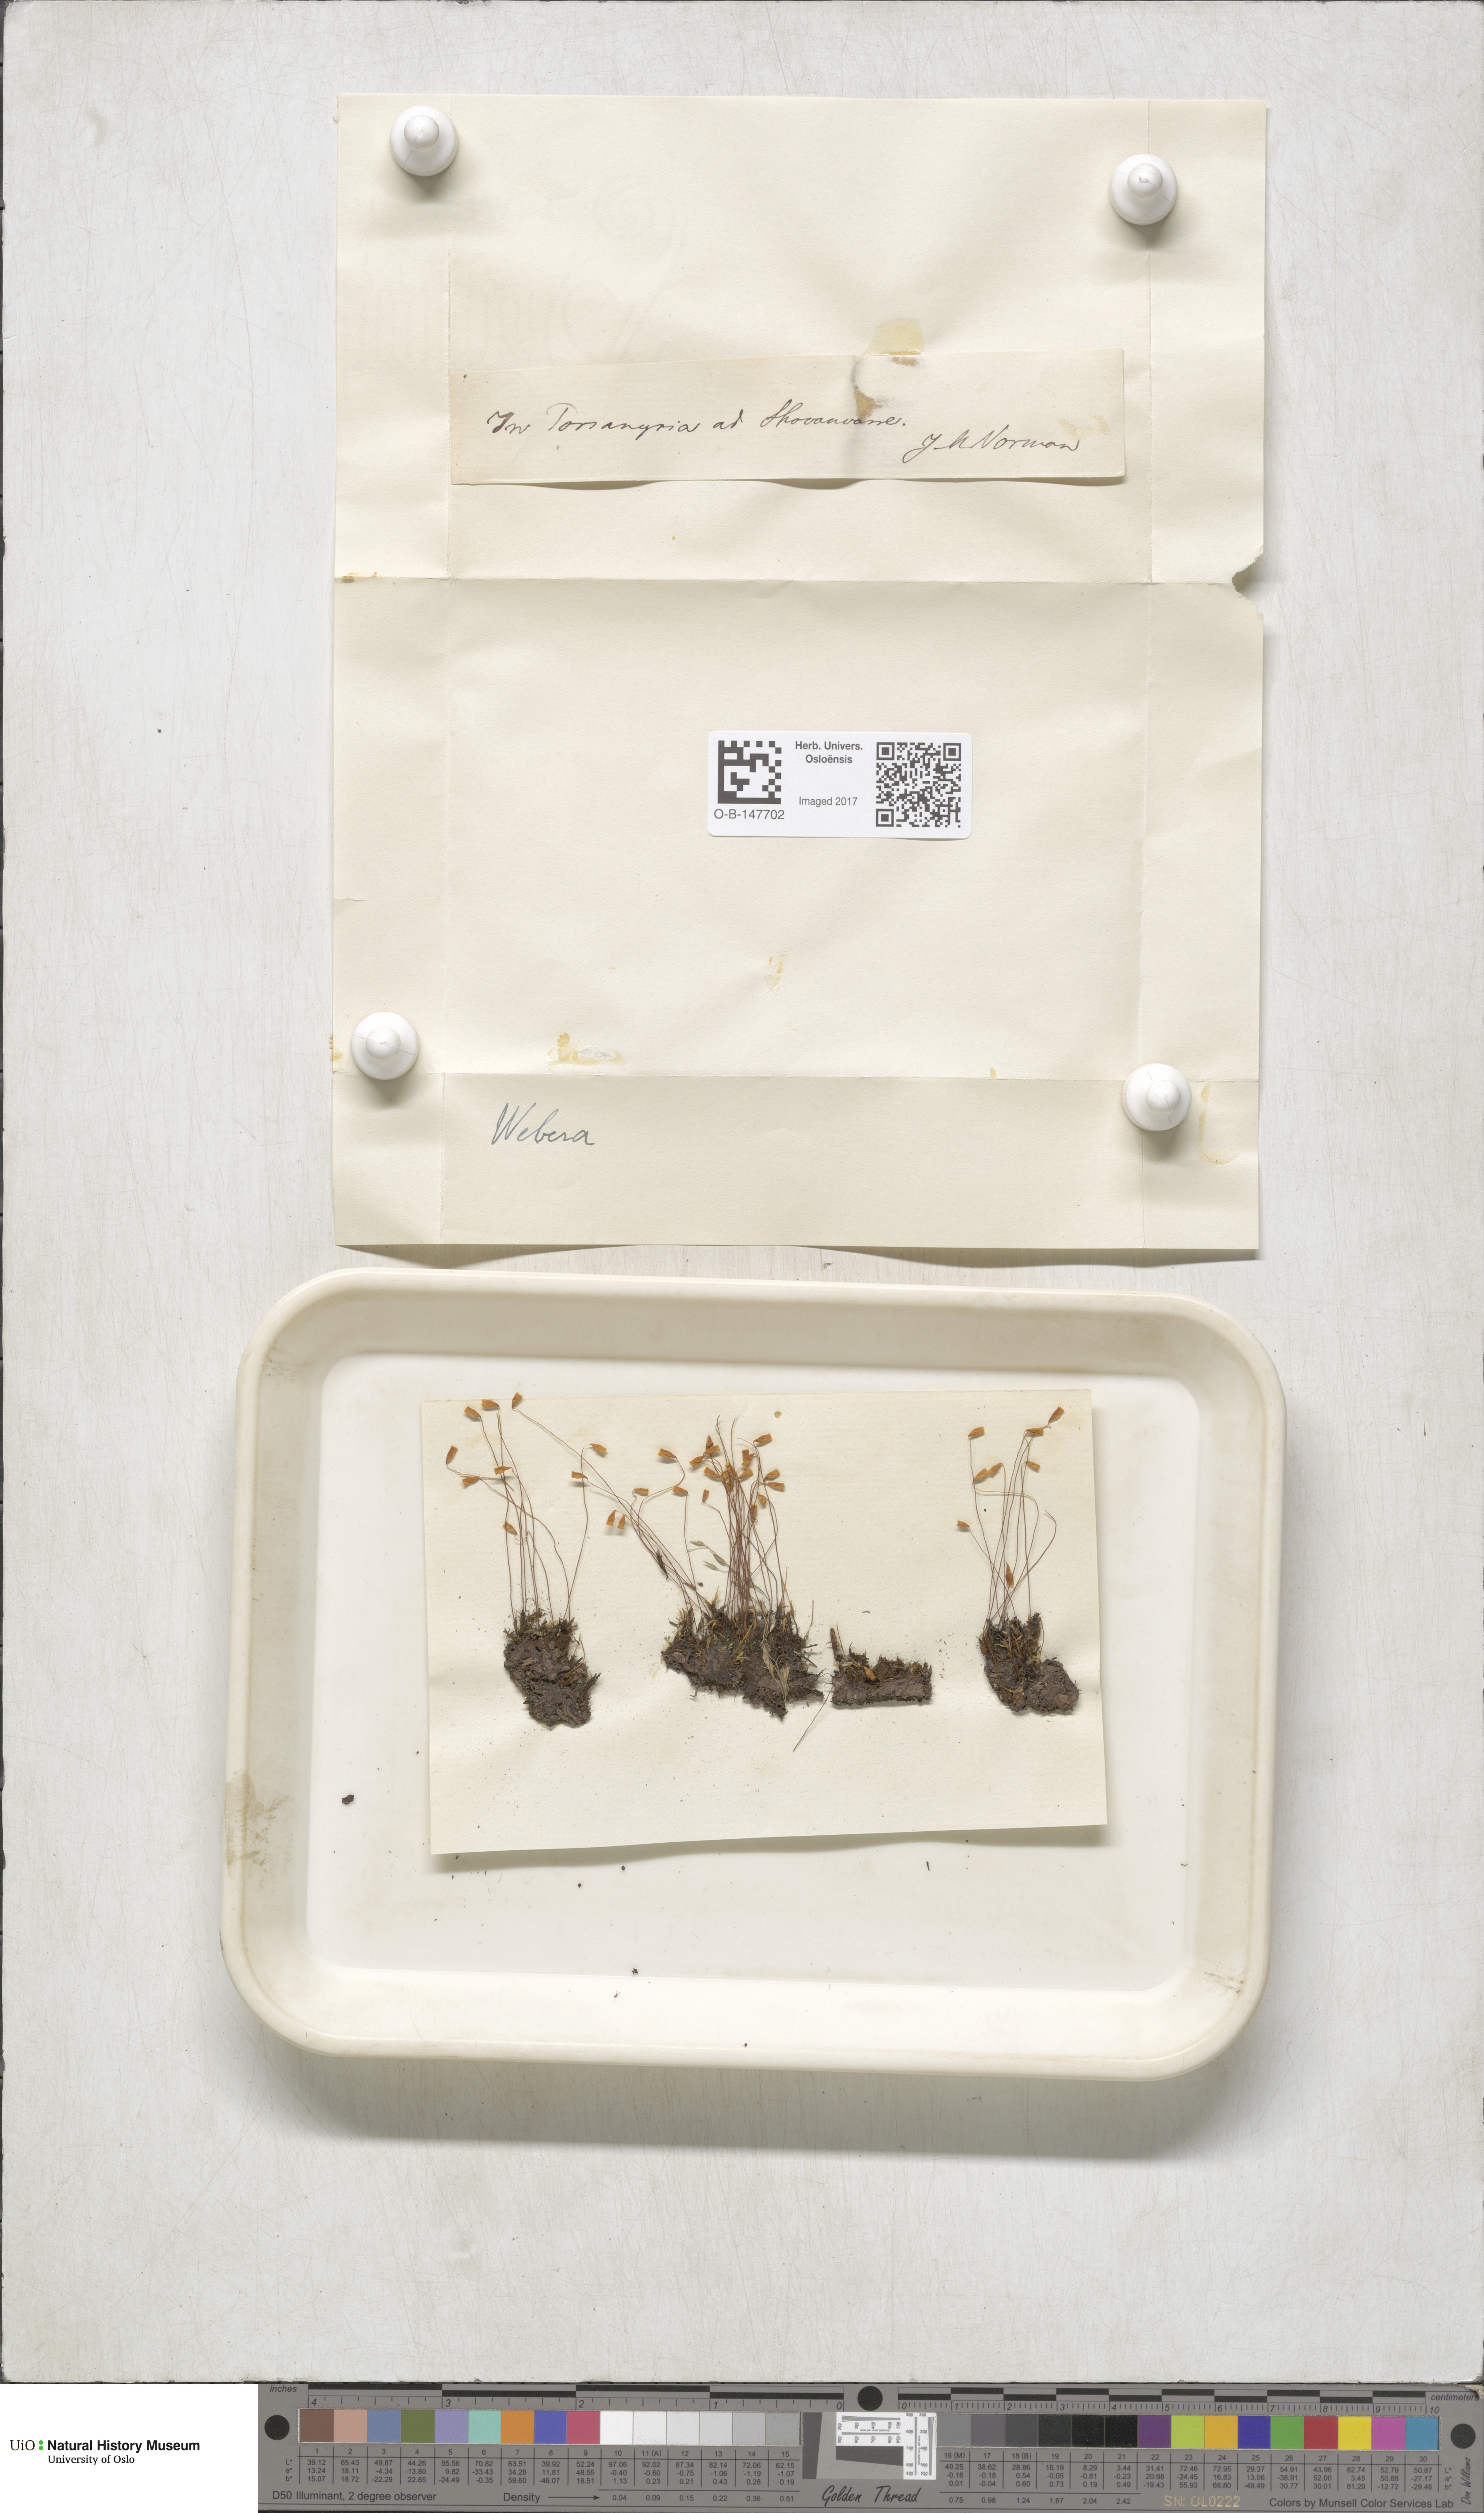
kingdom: Plantae
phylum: Bryophyta
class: Bryopsida
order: Bryales
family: Mniaceae
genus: Pohlia
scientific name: Pohlia
